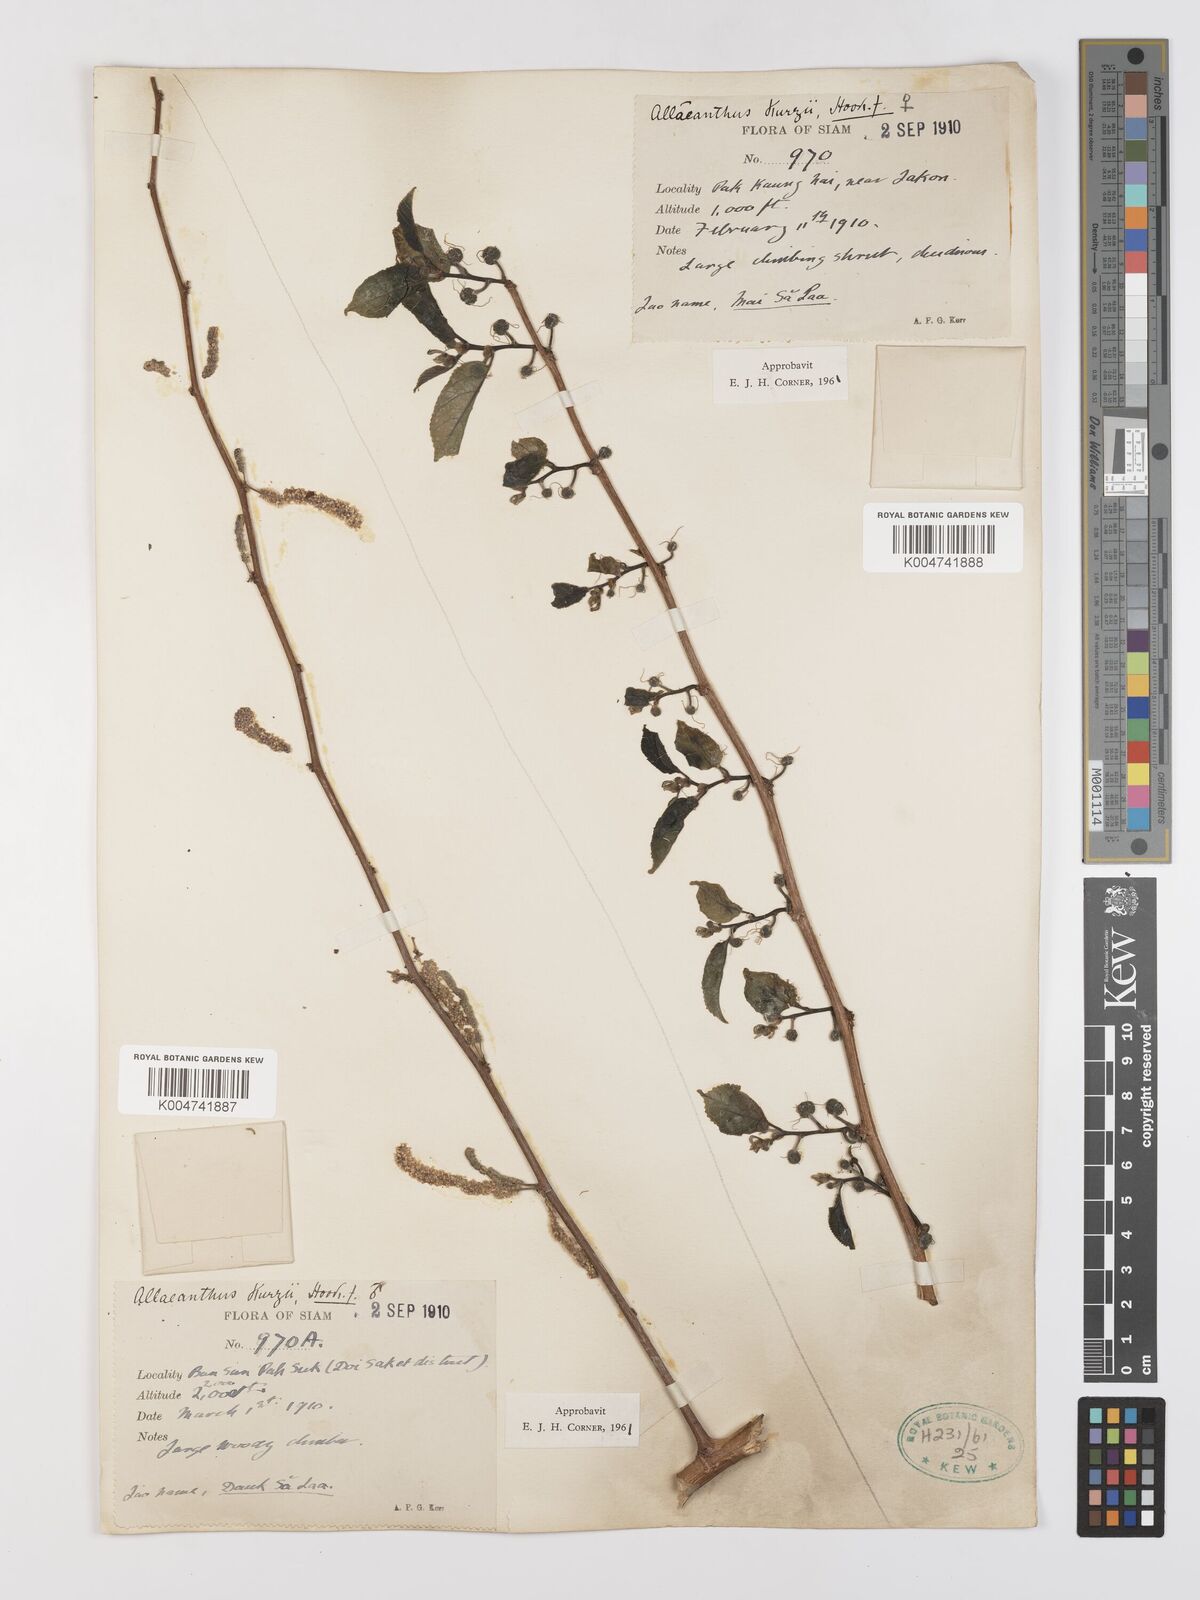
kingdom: Plantae
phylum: Tracheophyta
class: Magnoliopsida
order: Rosales
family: Moraceae
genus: Allaeanthus
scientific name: Allaeanthus kurzii
